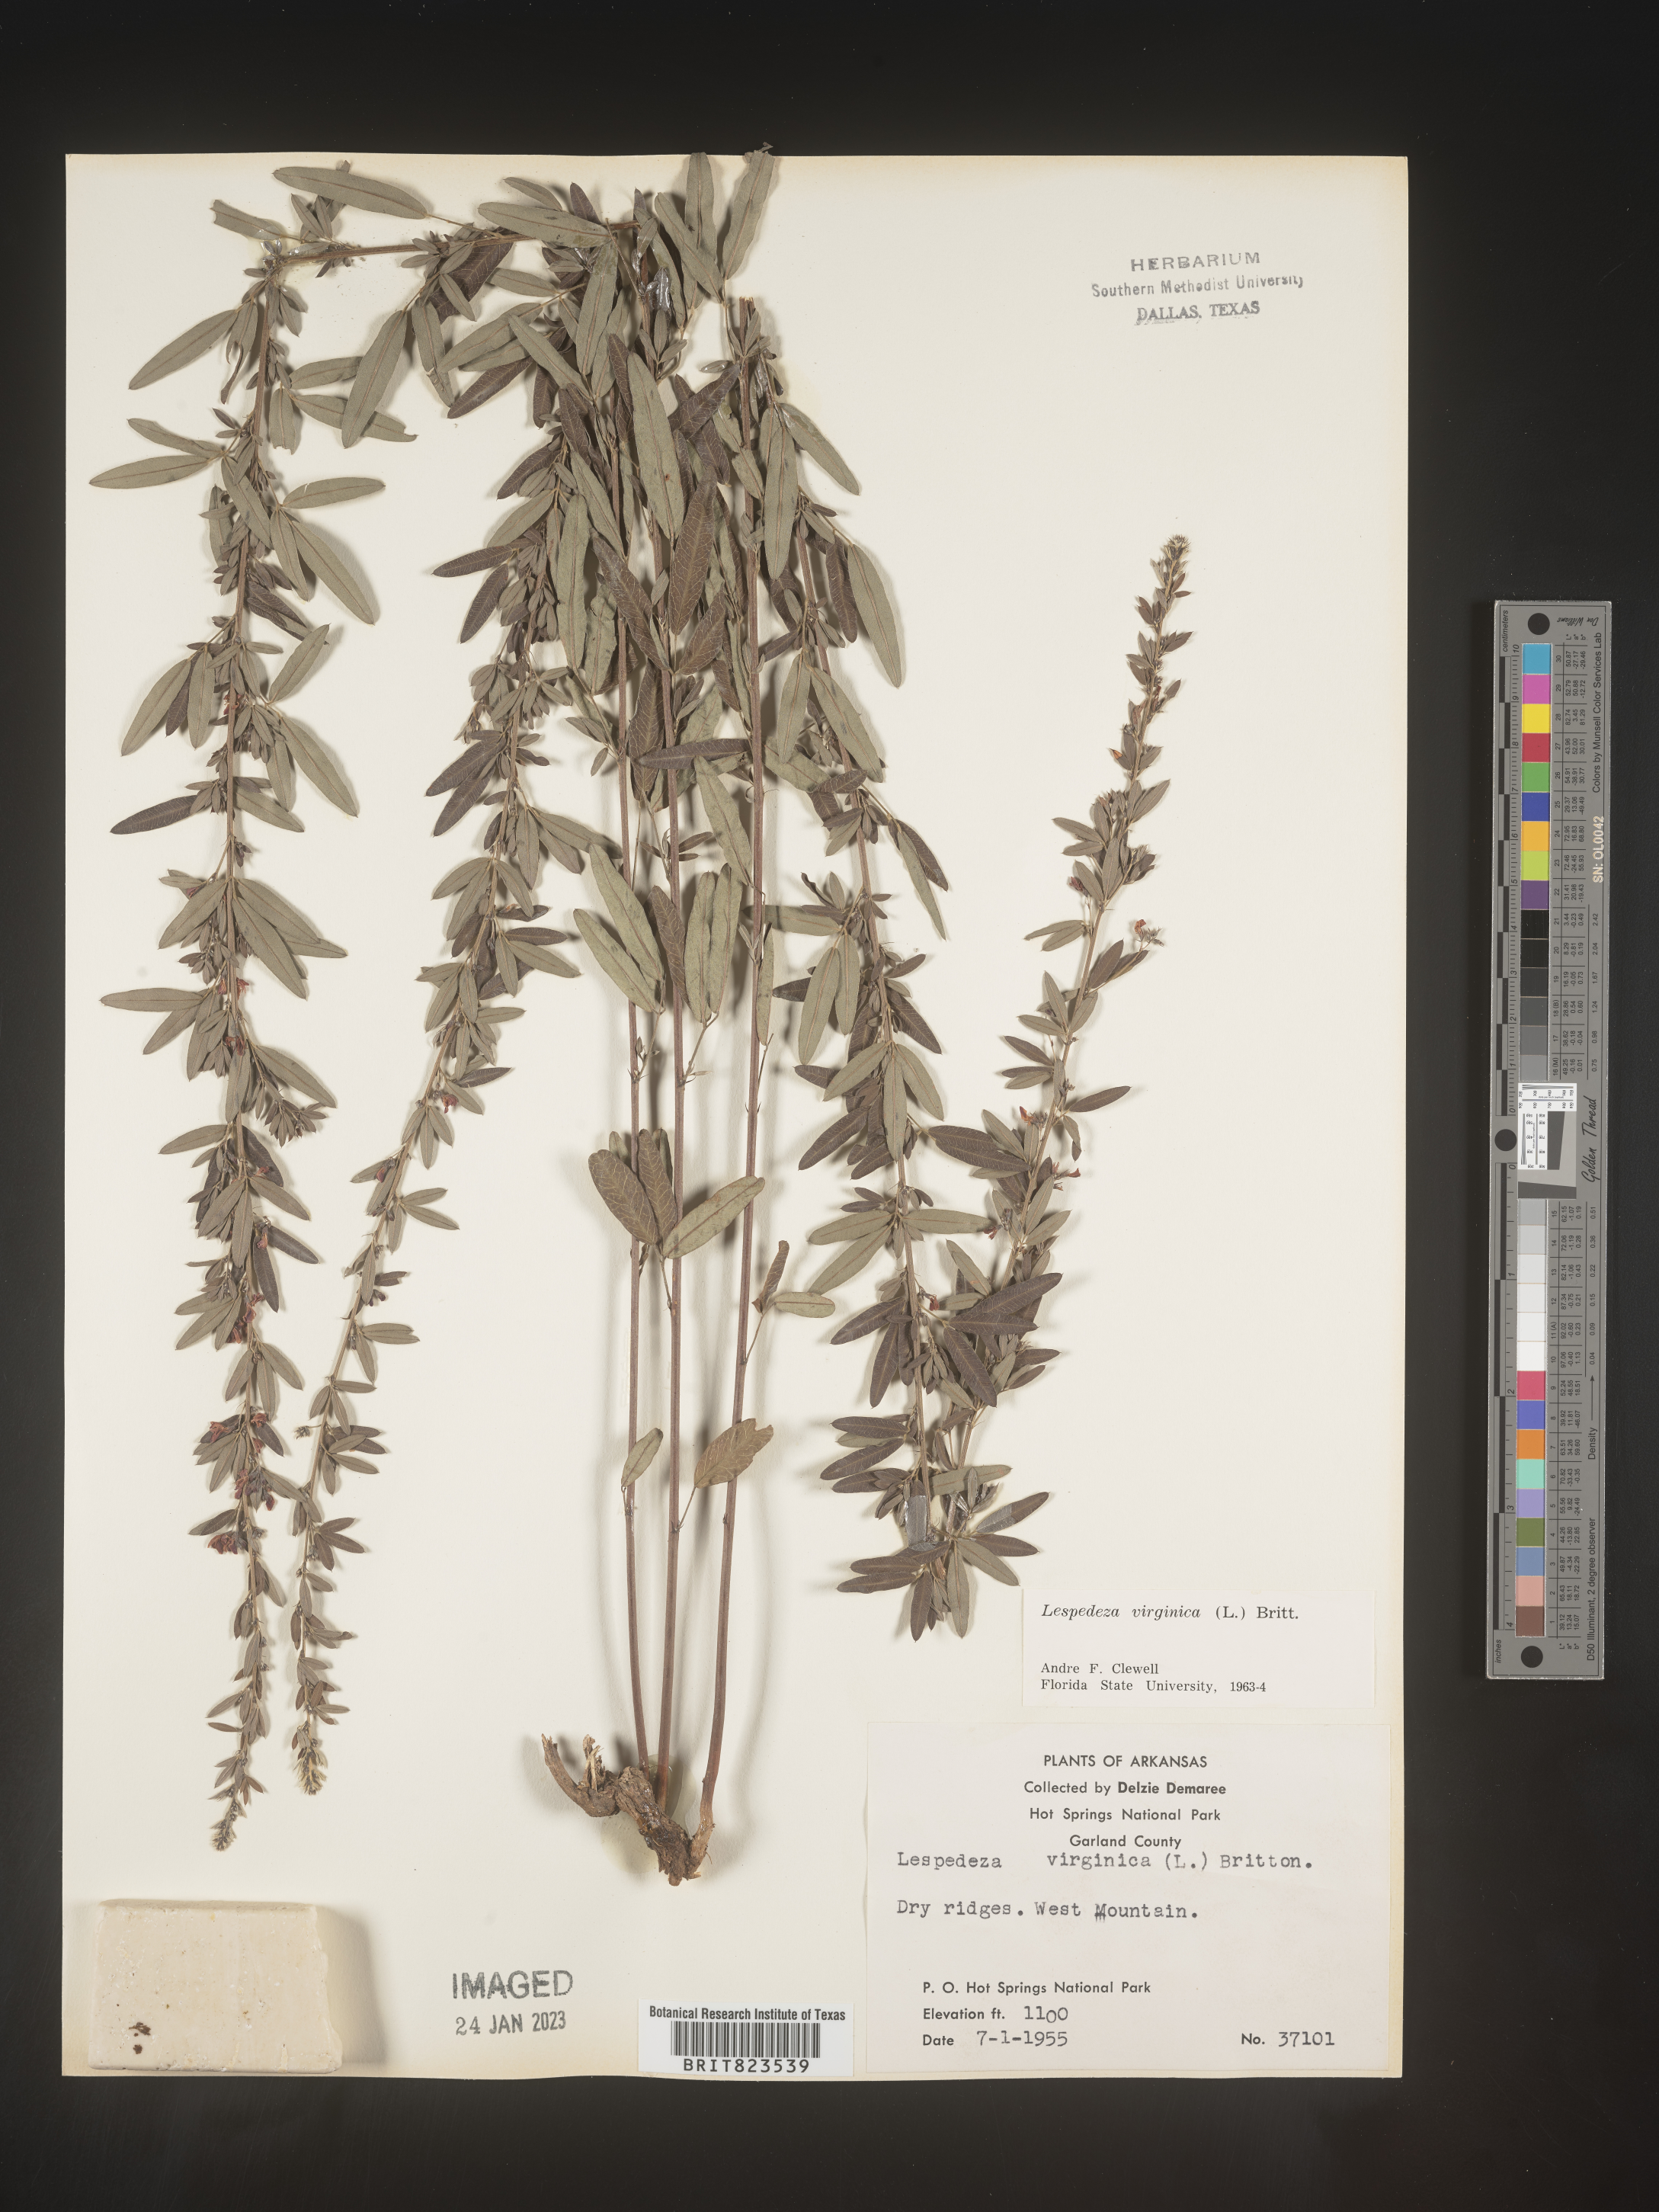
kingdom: Plantae
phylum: Tracheophyta
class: Magnoliopsida
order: Fabales
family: Fabaceae
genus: Lespedeza
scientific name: Lespedeza virginica
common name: Slender bush-clover
